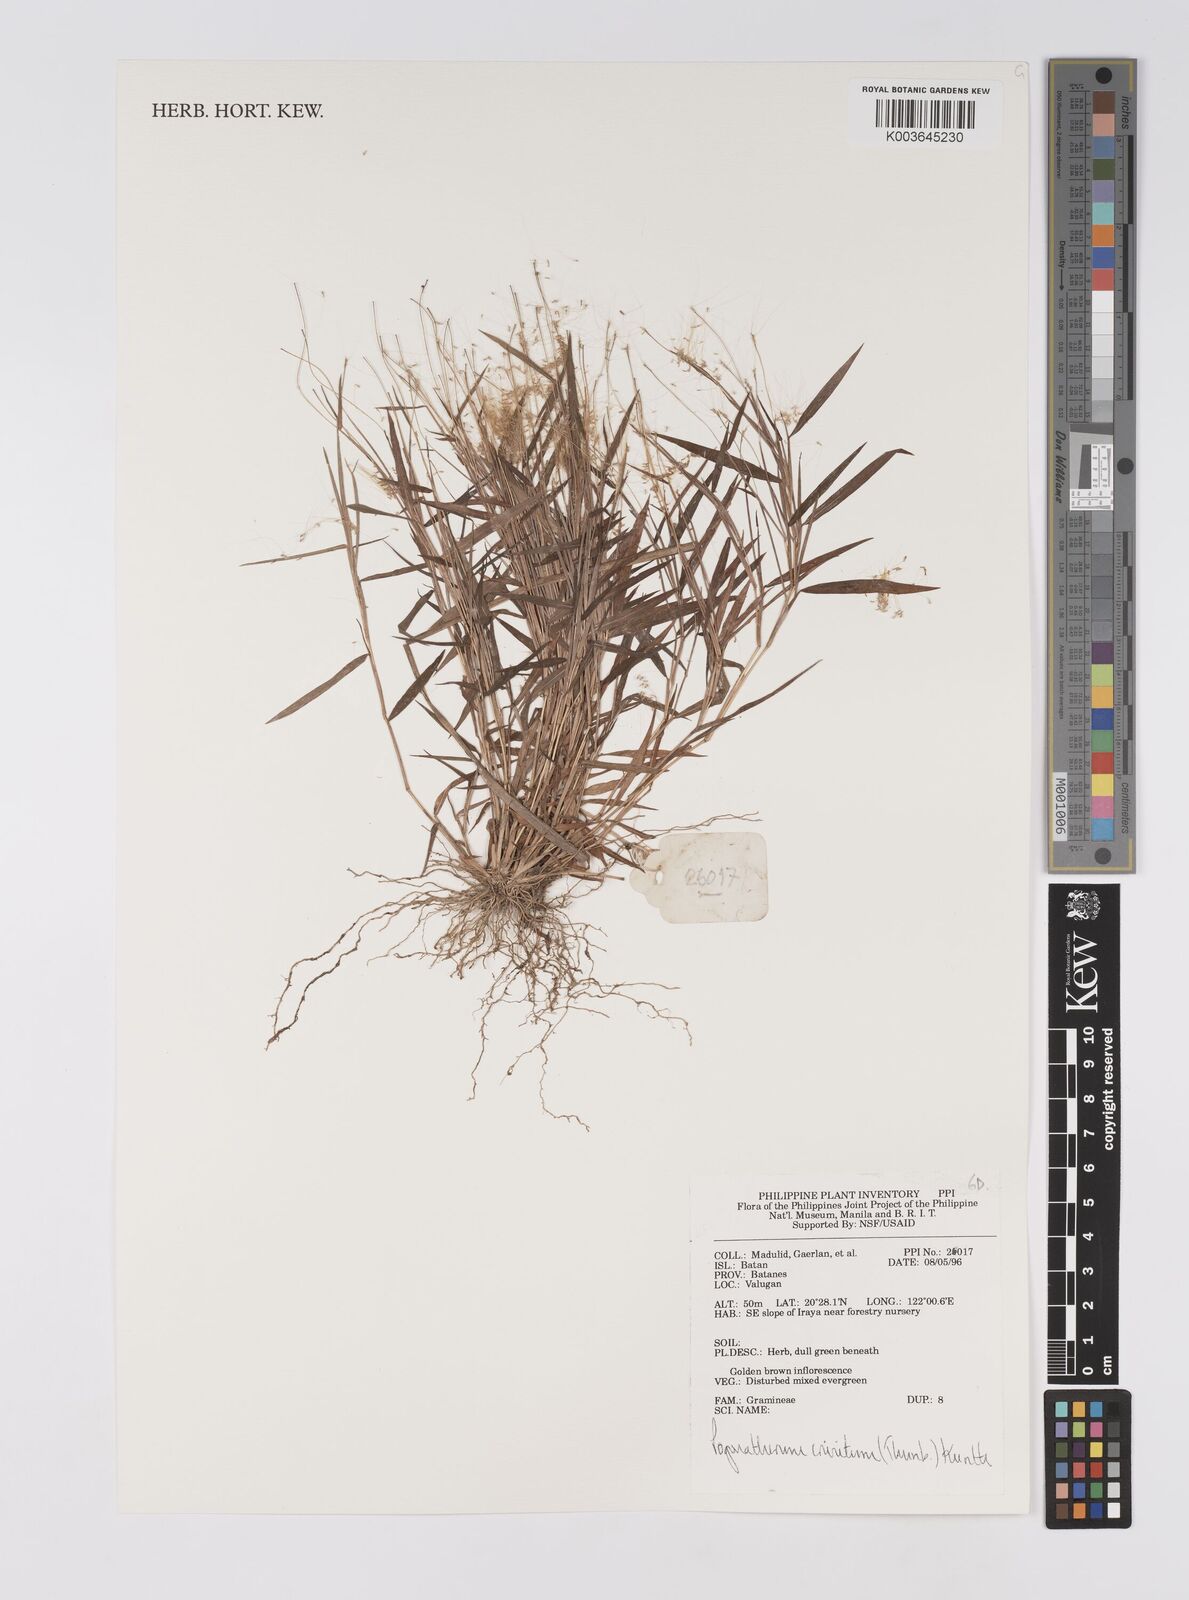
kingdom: Plantae
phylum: Tracheophyta
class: Liliopsida
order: Poales
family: Poaceae
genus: Pogonatherum
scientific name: Pogonatherum crinitum
